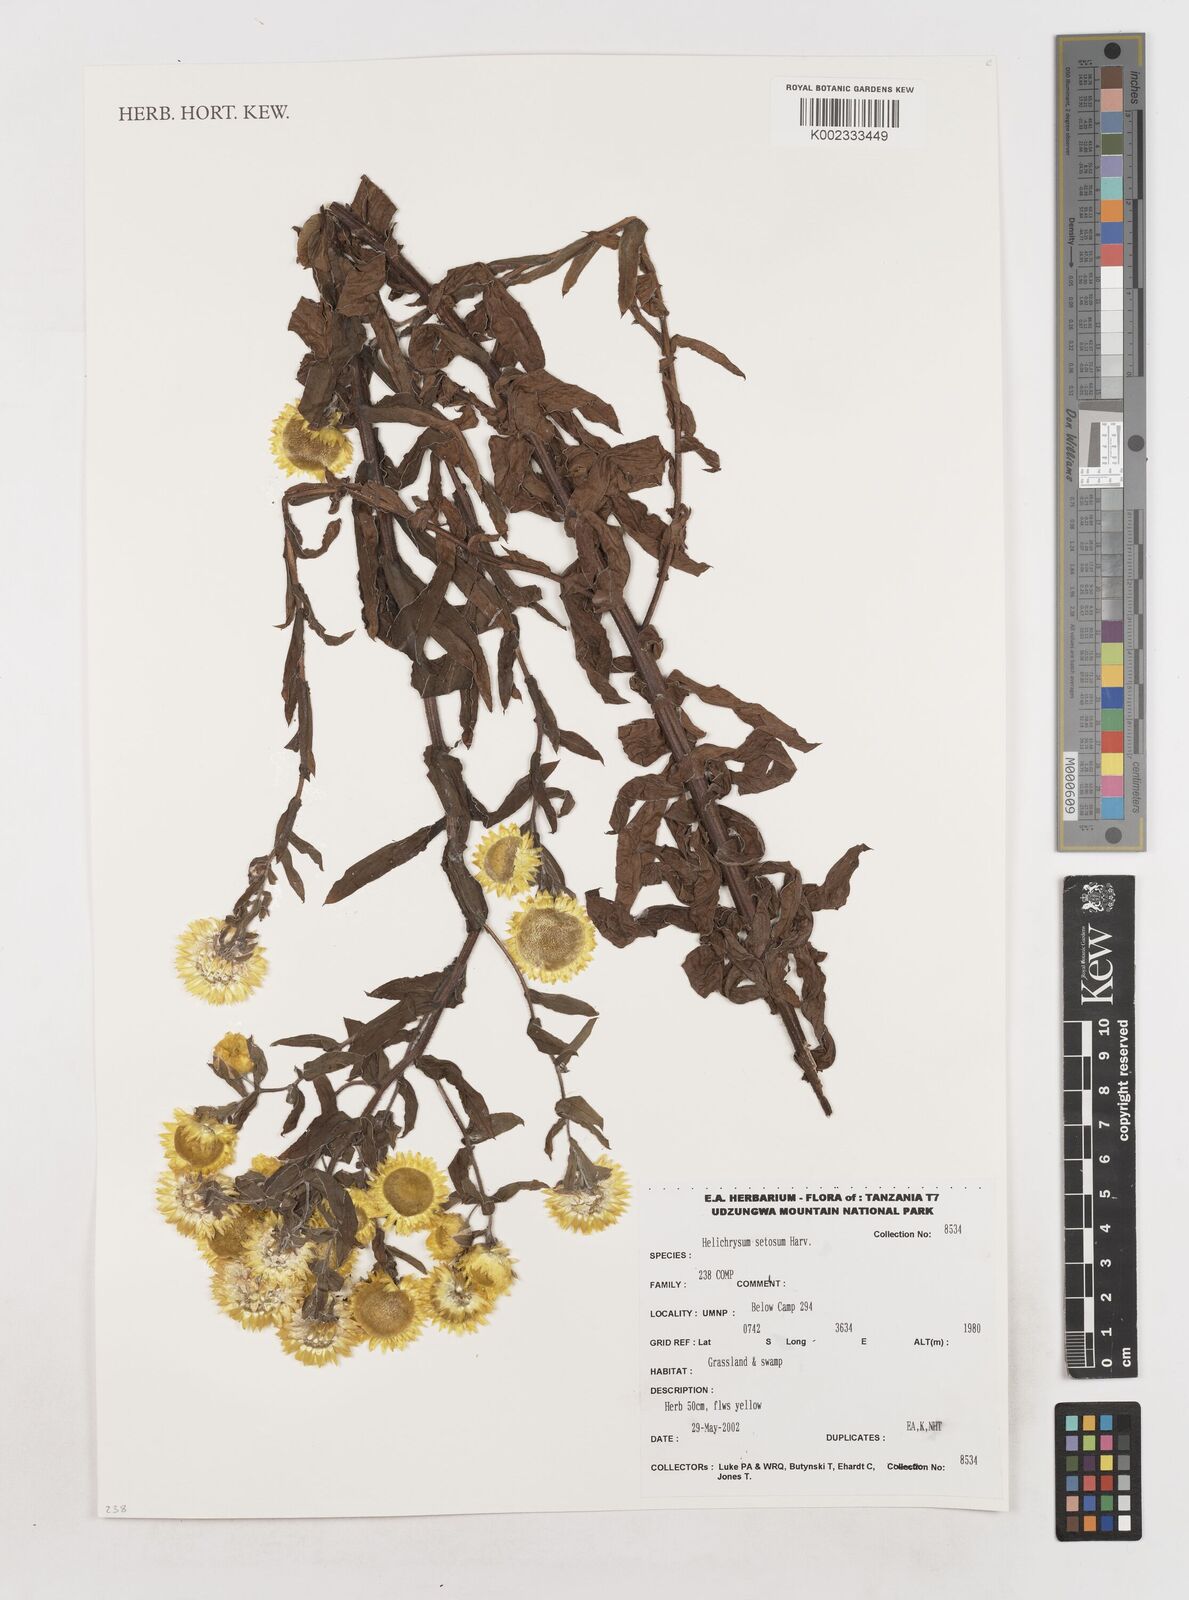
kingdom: Plantae
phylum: Tracheophyta
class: Magnoliopsida
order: Asterales
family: Asteraceae
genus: Helichrysum
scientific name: Helichrysum setosum
